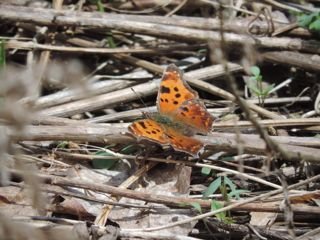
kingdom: Animalia
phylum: Arthropoda
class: Insecta
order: Lepidoptera
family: Nymphalidae
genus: Polygonia
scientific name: Polygonia comma
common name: Eastern Comma
